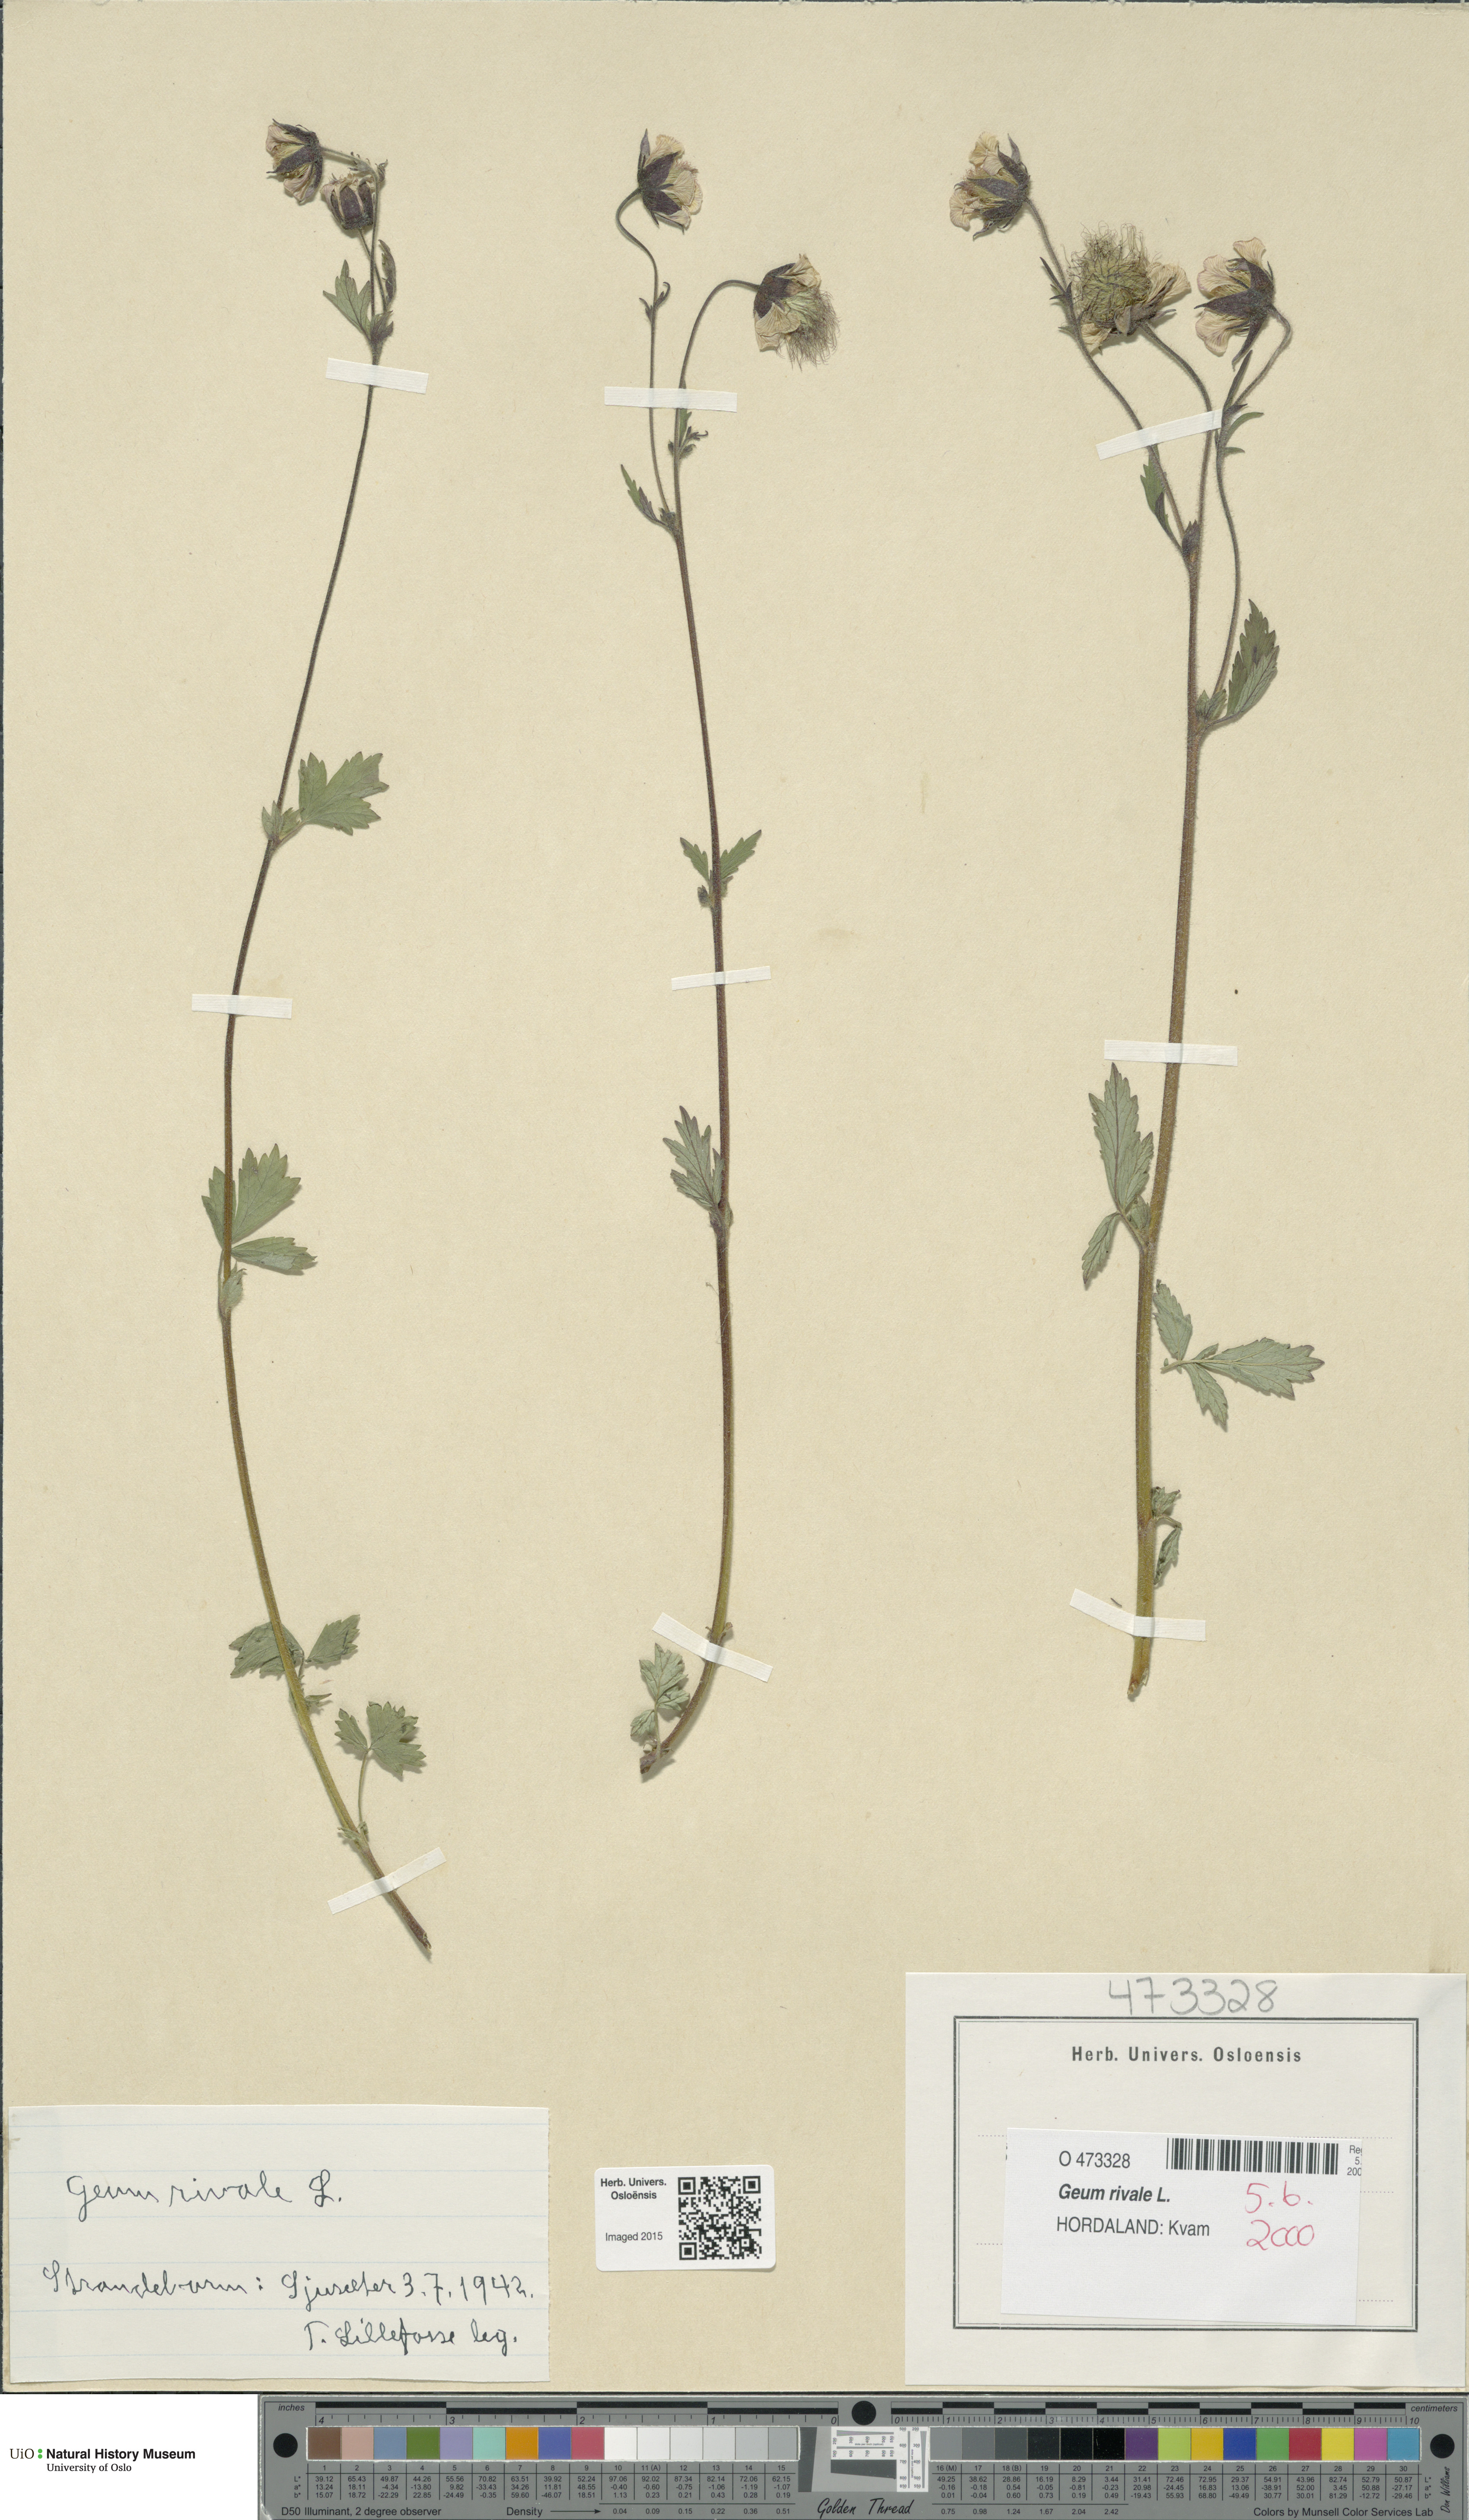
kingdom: Plantae
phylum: Tracheophyta
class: Magnoliopsida
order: Rosales
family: Rosaceae
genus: Geum
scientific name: Geum rivale
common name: Water avens
